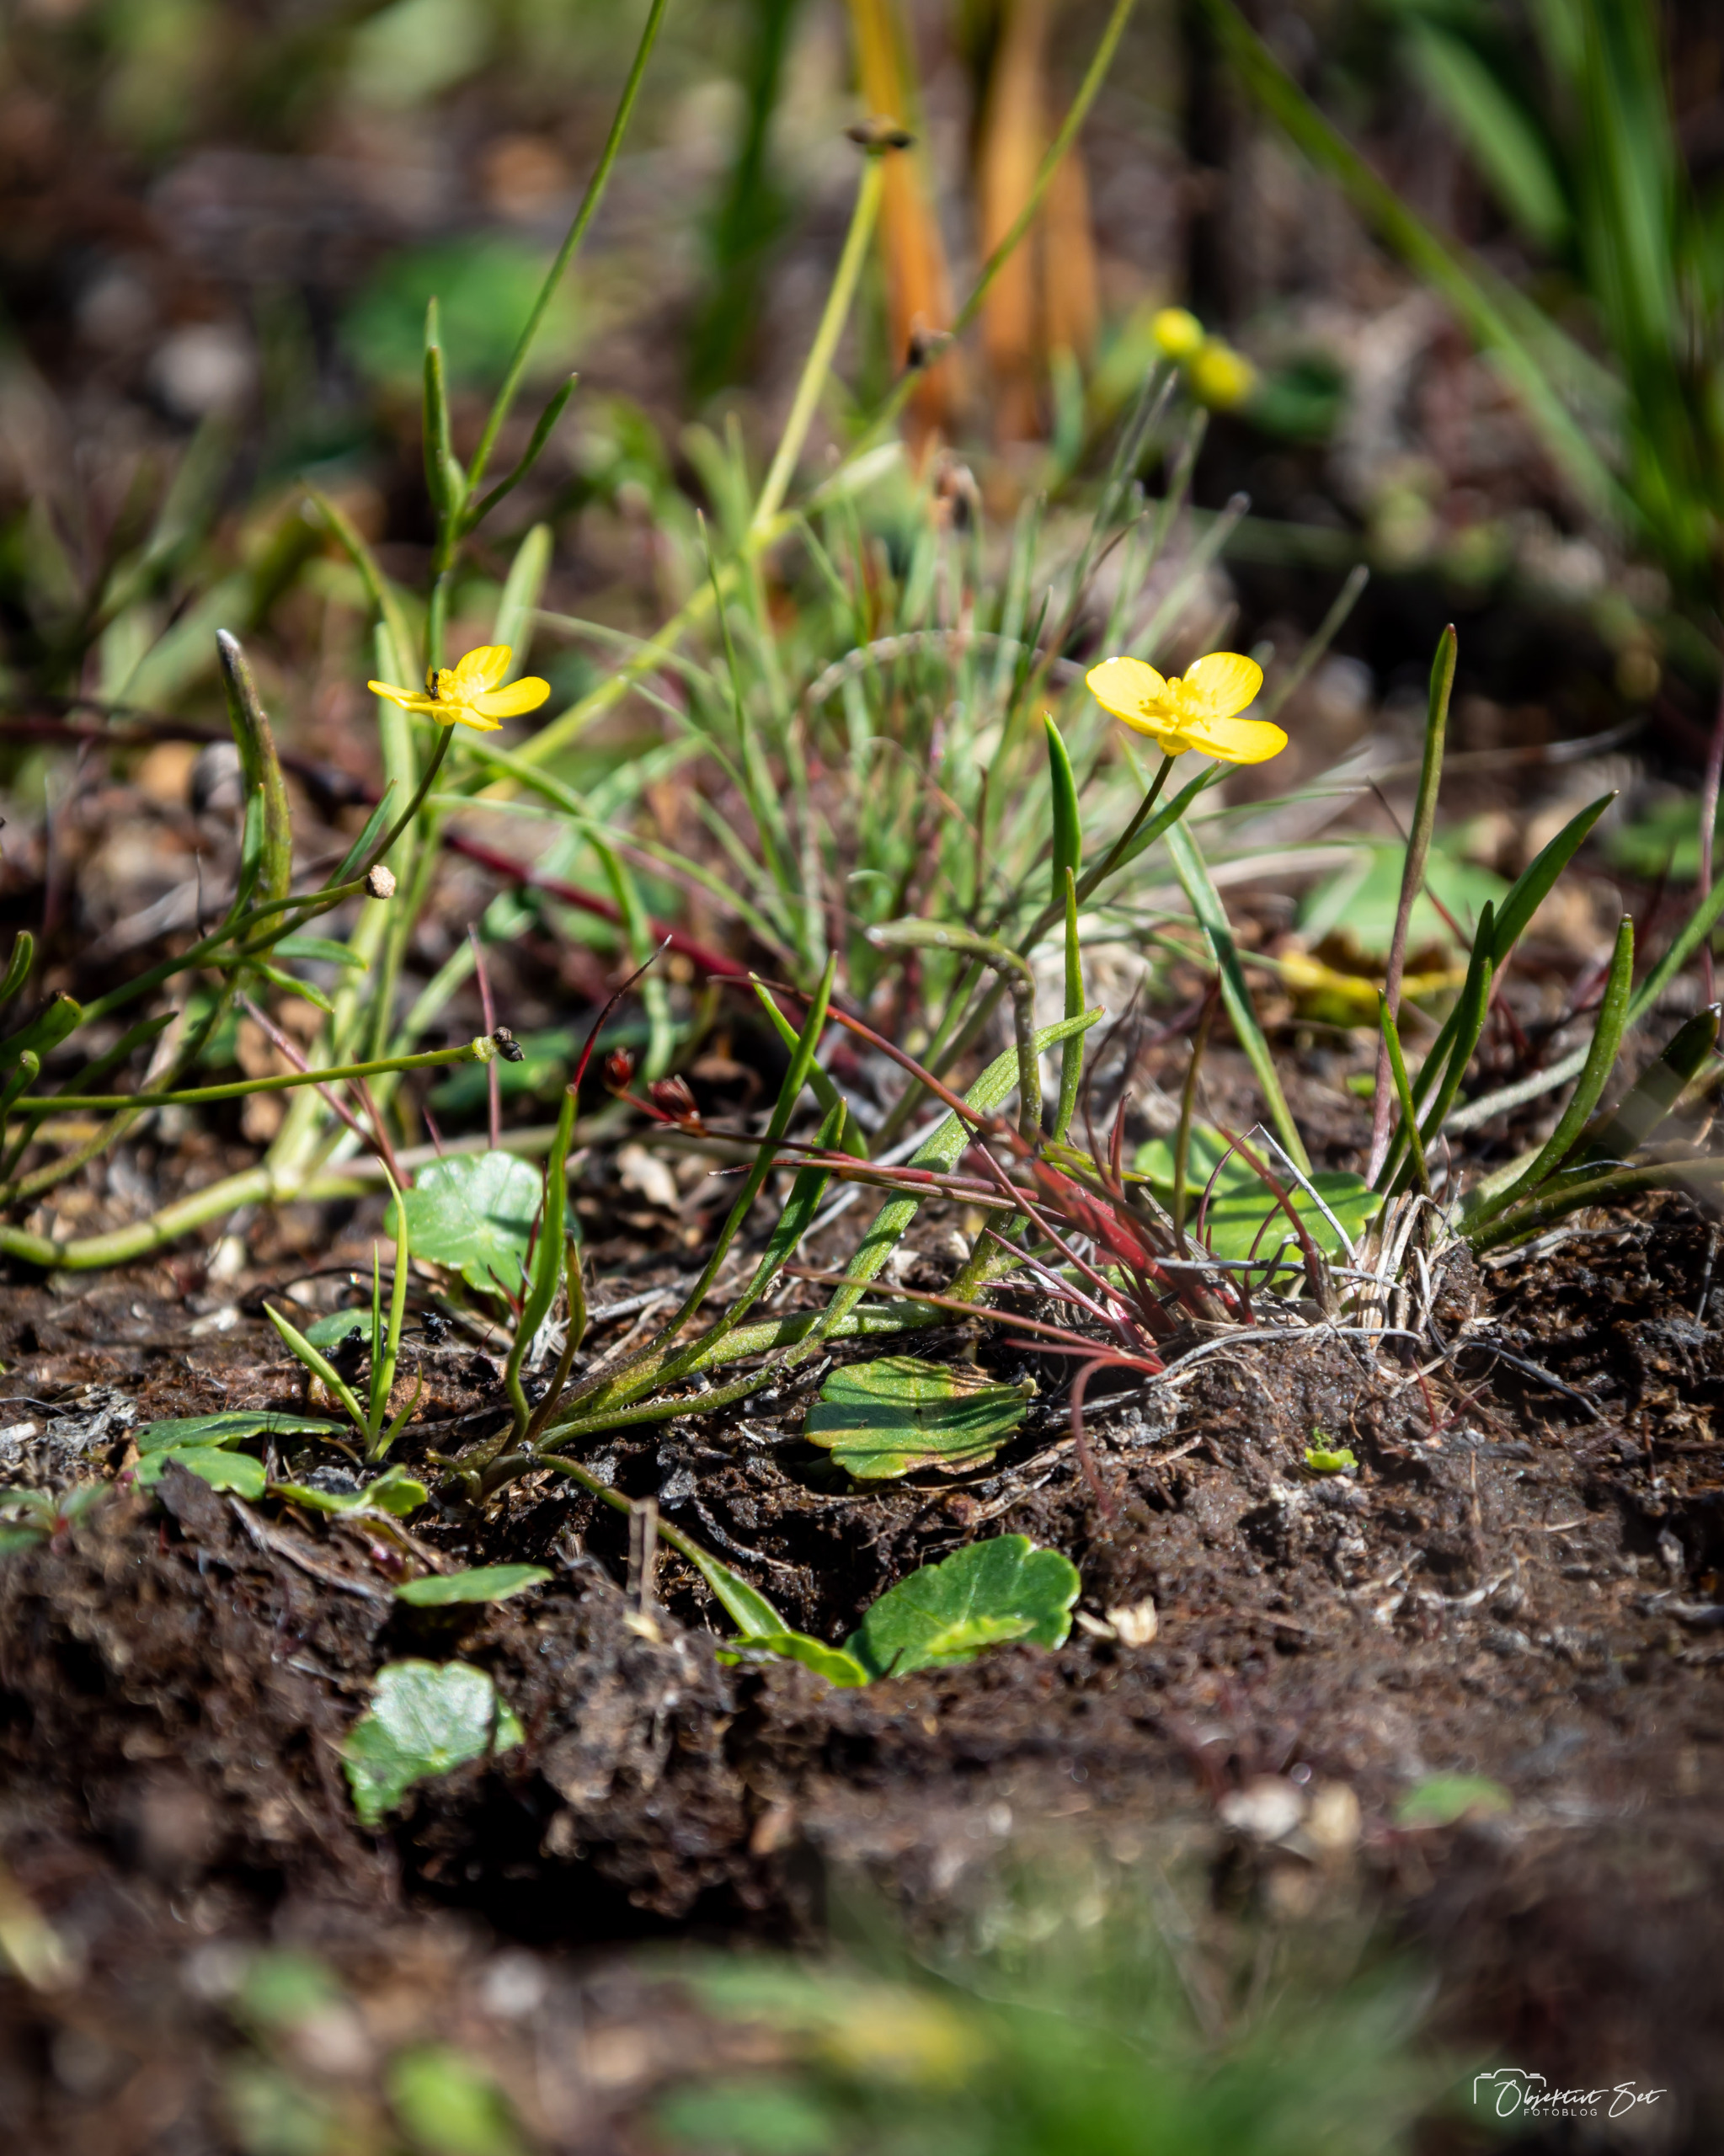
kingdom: Plantae
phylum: Tracheophyta
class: Magnoliopsida
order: Ranunculales
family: Ranunculaceae
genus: Ranunculus
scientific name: Ranunculus flammula
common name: Kær-ranunkel
